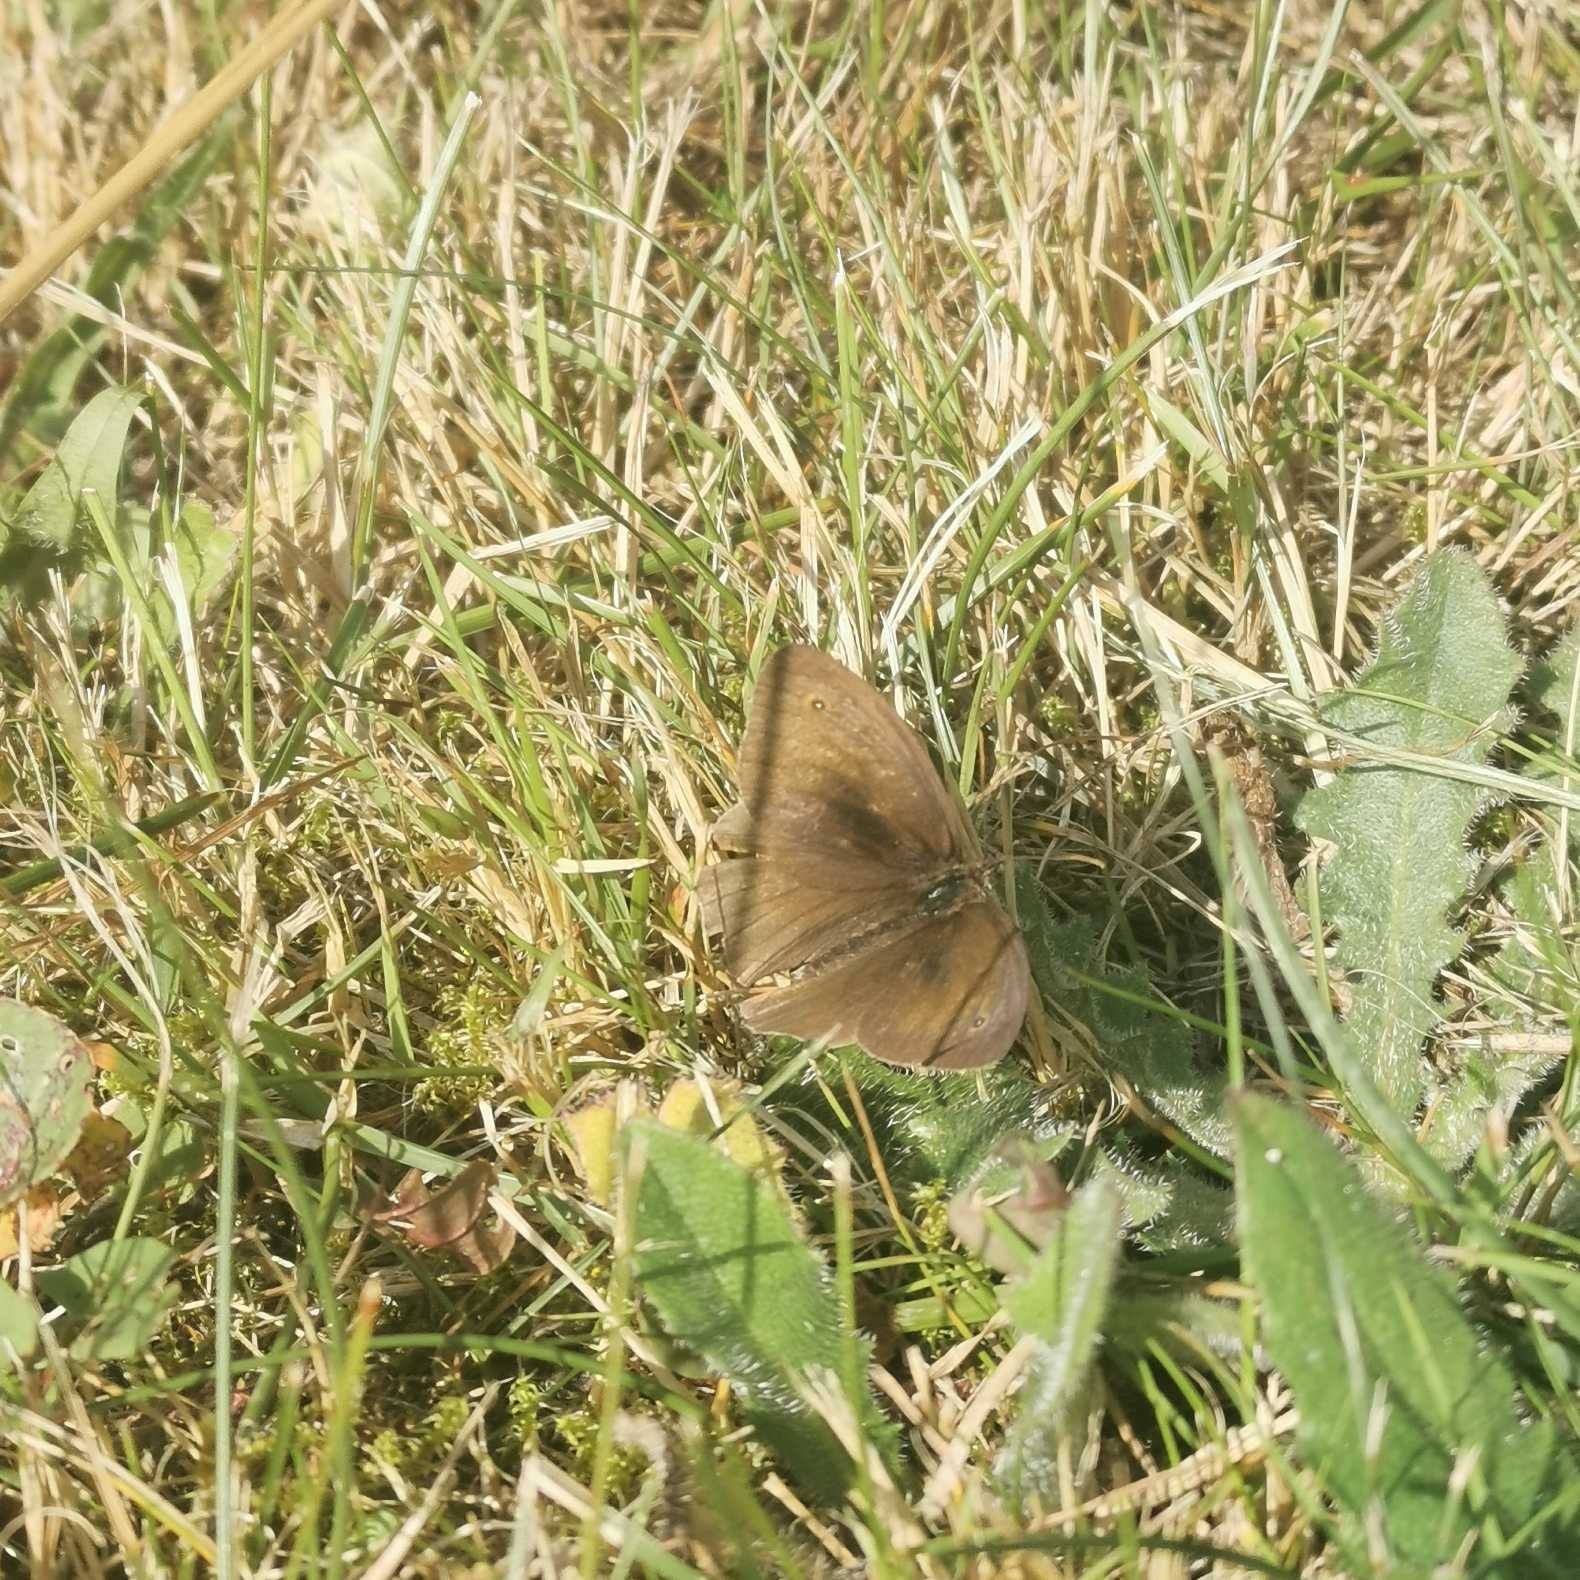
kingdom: Animalia
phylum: Arthropoda
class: Insecta
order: Lepidoptera
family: Nymphalidae
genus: Aphantopus
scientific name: Aphantopus hyperantus
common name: Engrandøje
